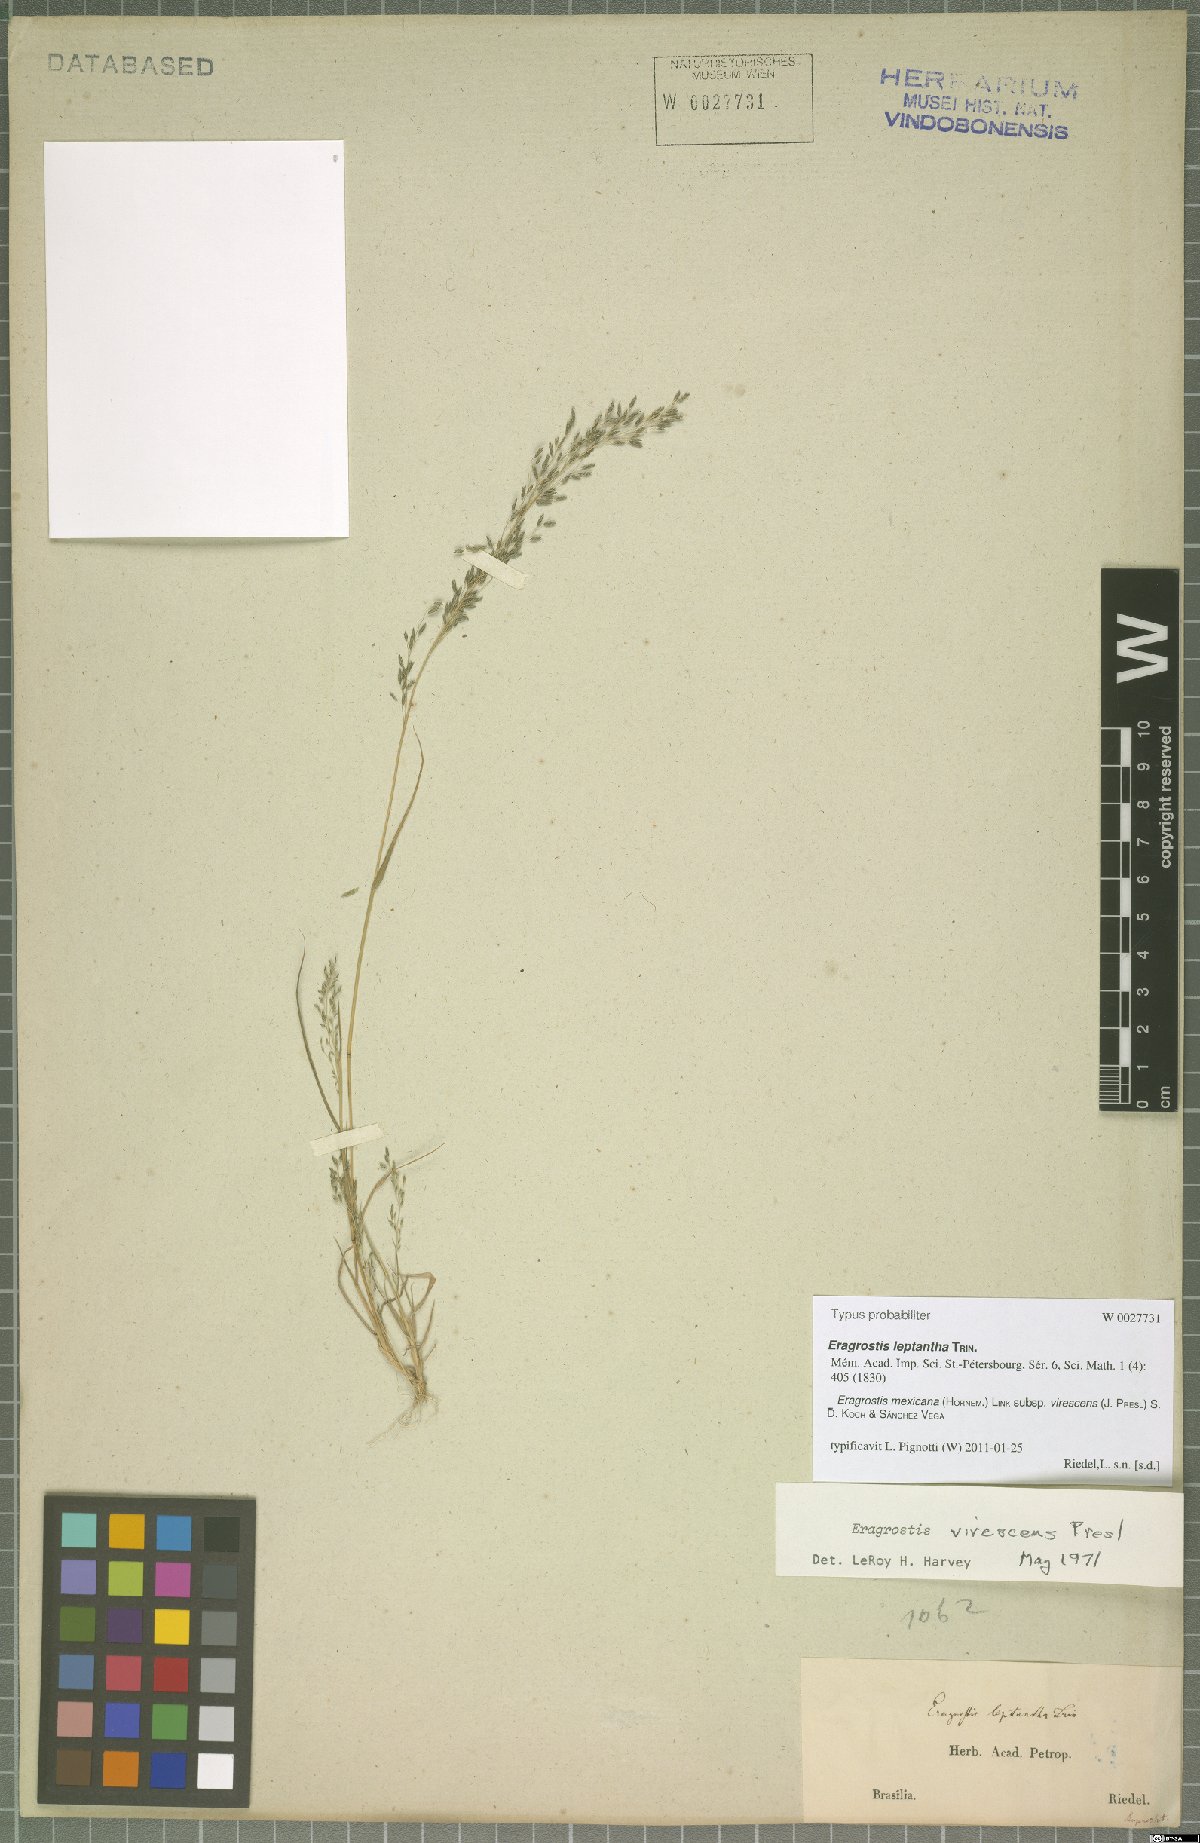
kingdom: Plantae
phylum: Tracheophyta
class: Liliopsida
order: Poales
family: Poaceae
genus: Eragrostis
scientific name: Eragrostis virescens
